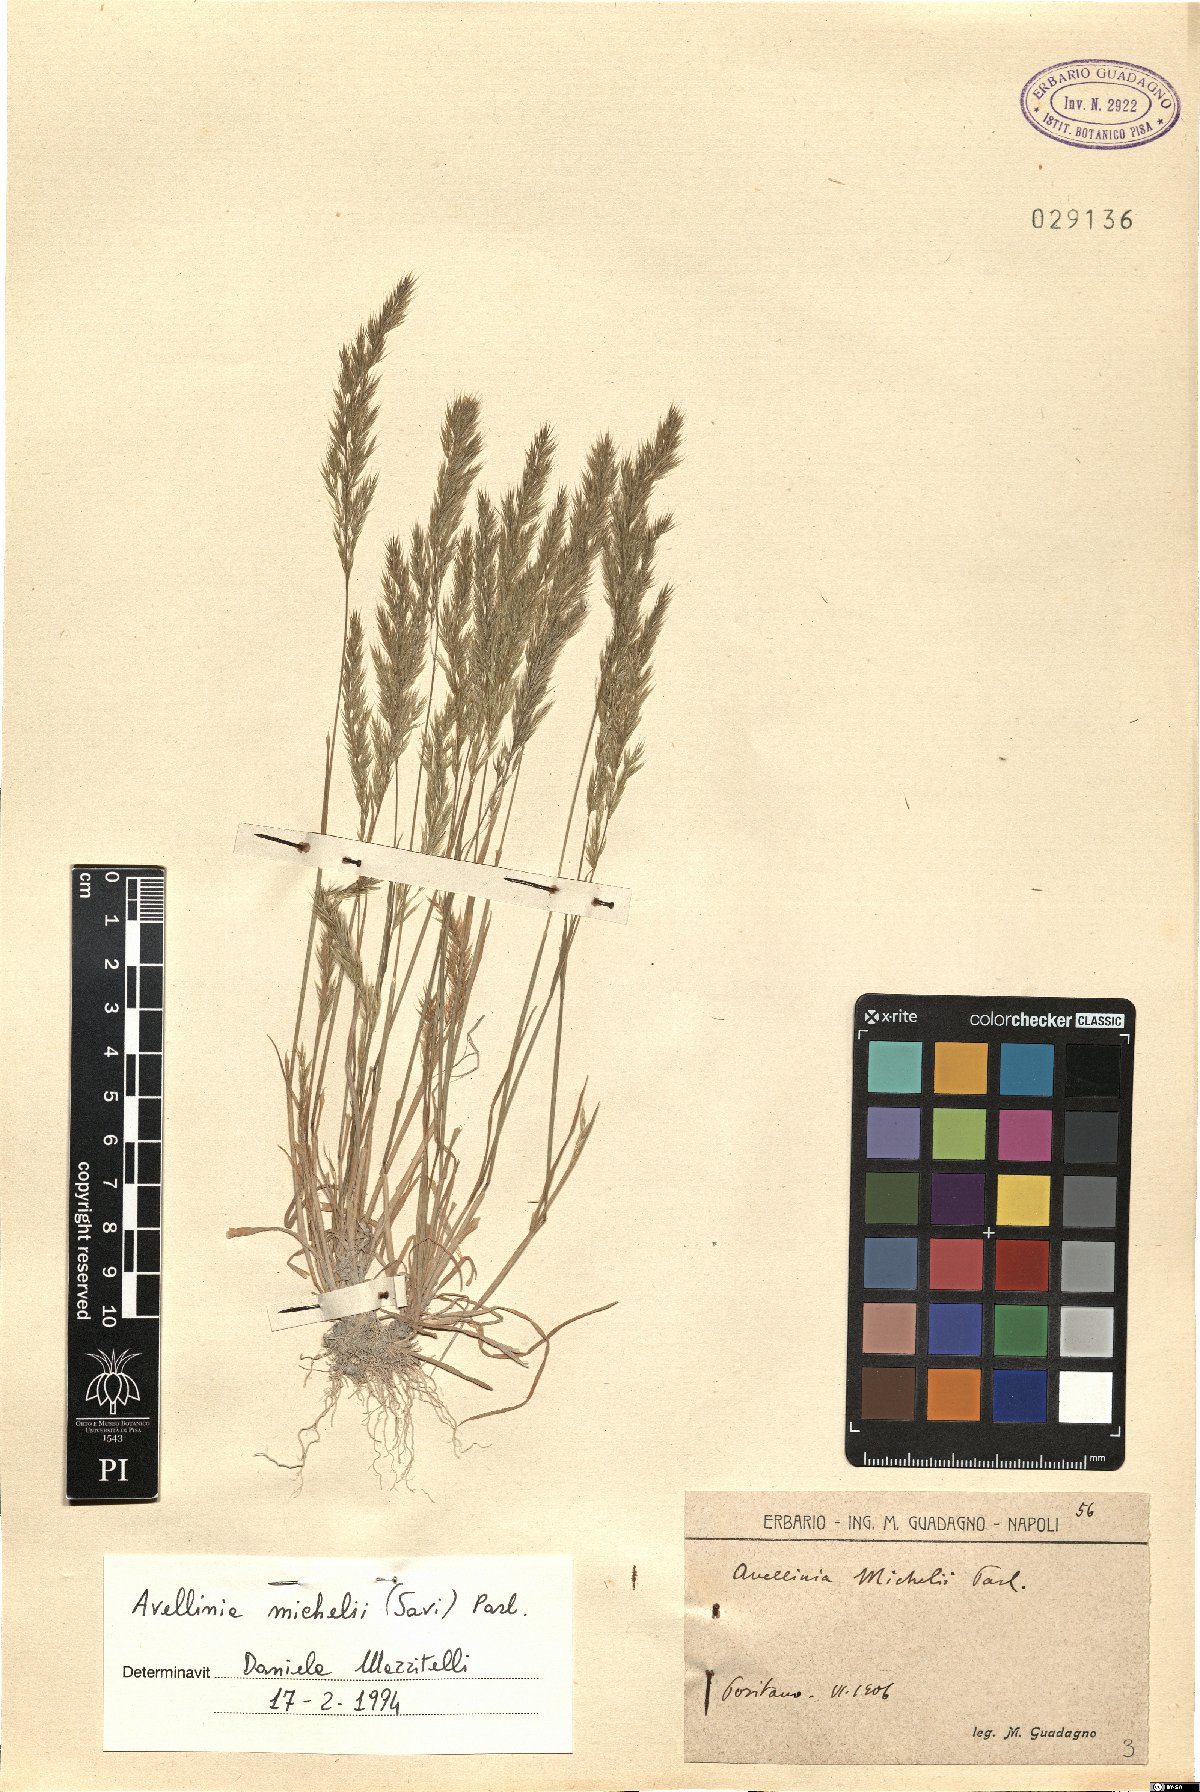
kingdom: Plantae
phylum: Tracheophyta
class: Liliopsida
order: Poales
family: Poaceae
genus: Avellinia
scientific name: Avellinia festucoides
